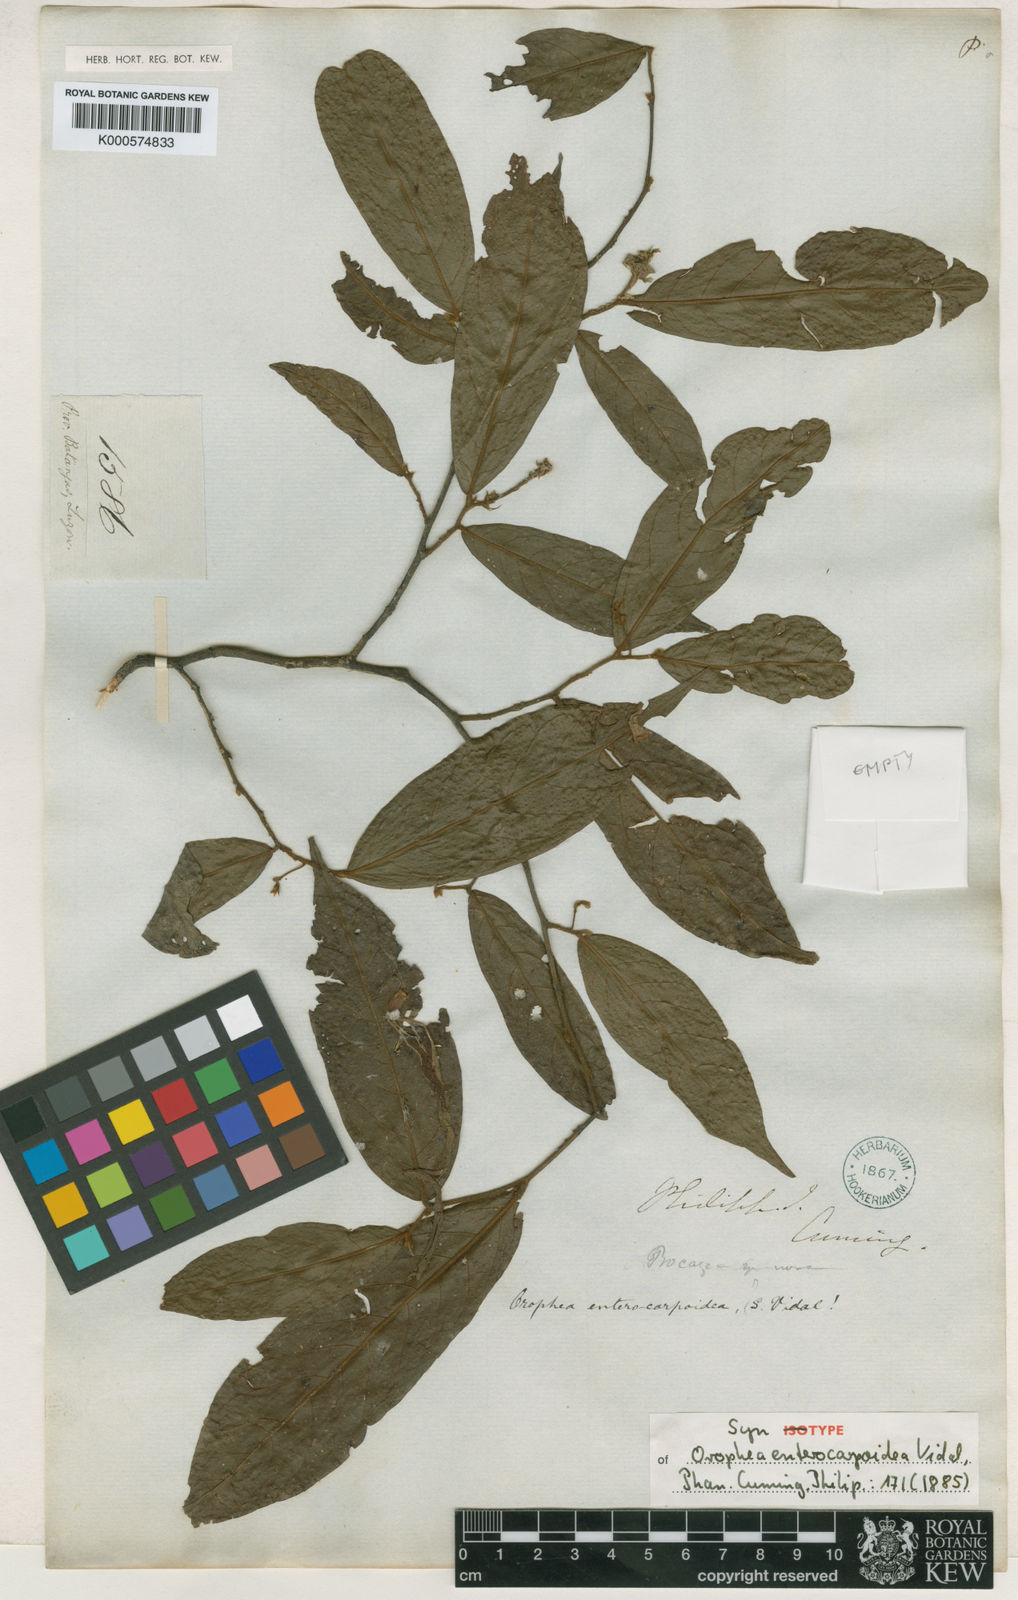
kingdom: Plantae
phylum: Tracheophyta
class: Magnoliopsida
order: Magnoliales
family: Annonaceae
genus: Orophea
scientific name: Orophea
